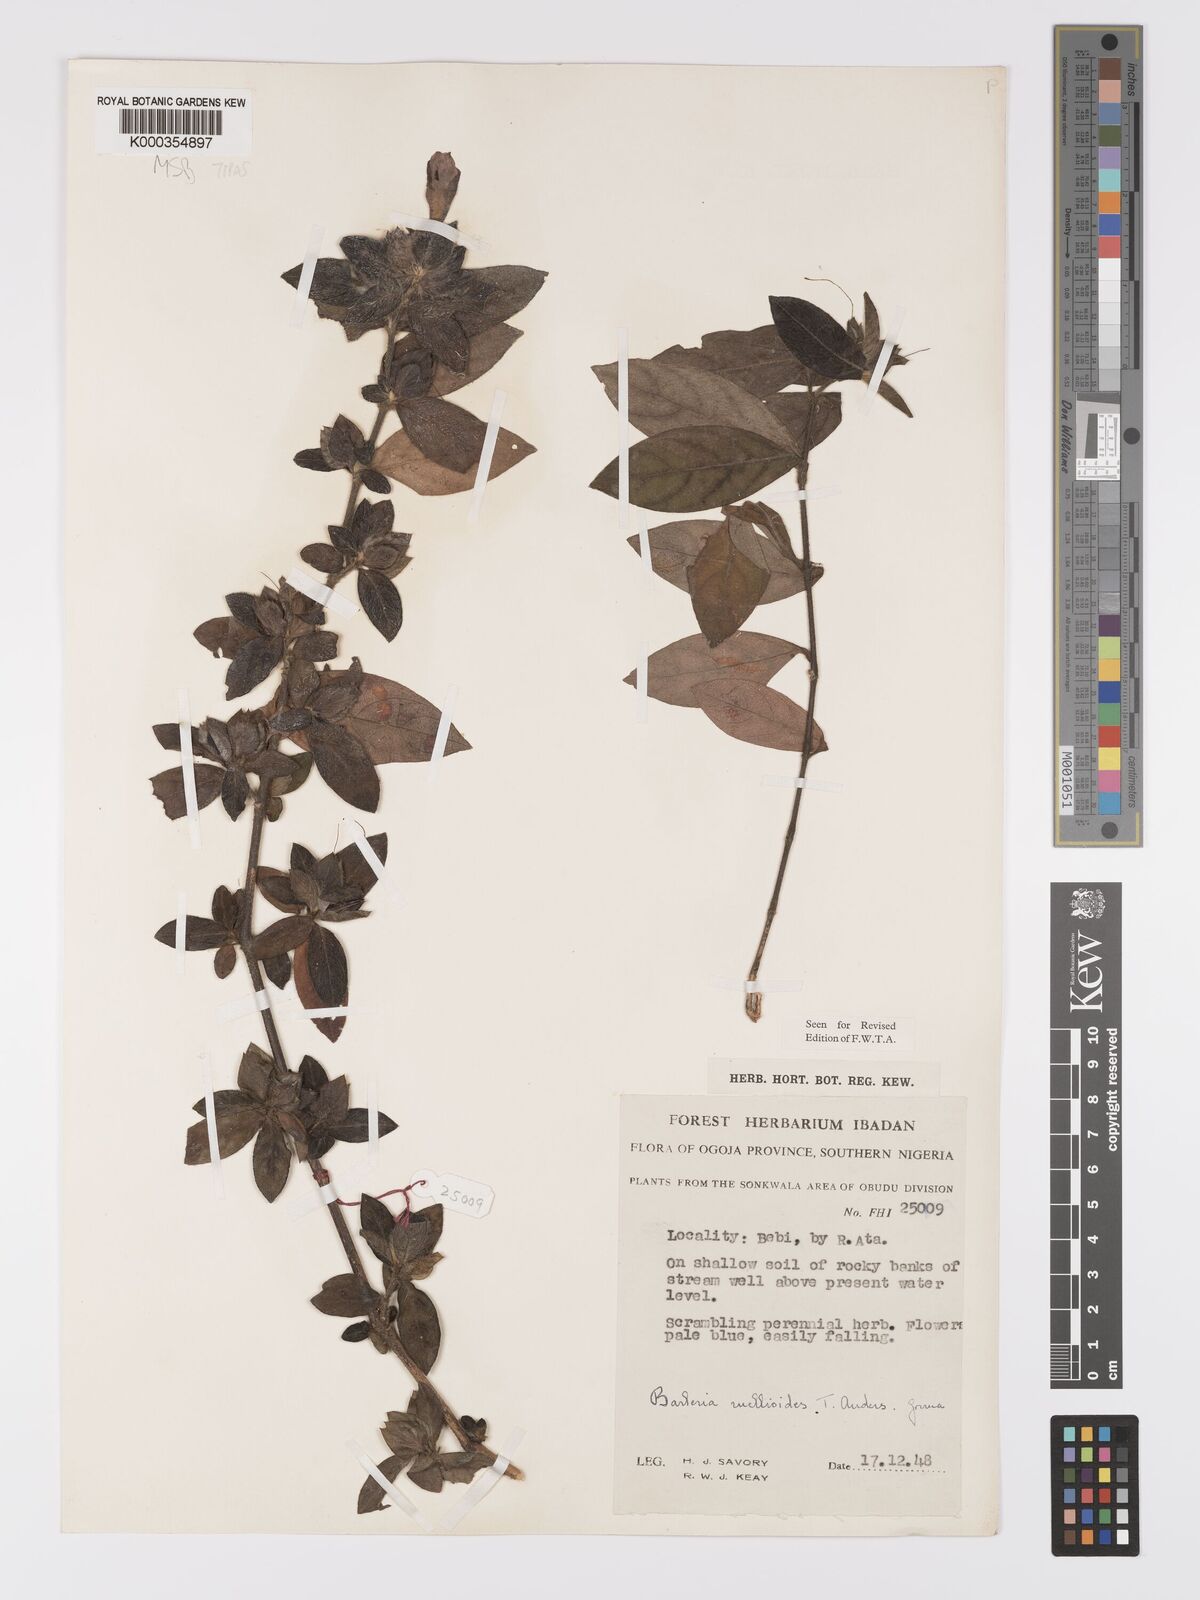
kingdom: Plantae
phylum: Tracheophyta
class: Magnoliopsida
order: Lamiales
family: Acanthaceae
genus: Barleria
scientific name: Barleria ruellioides
